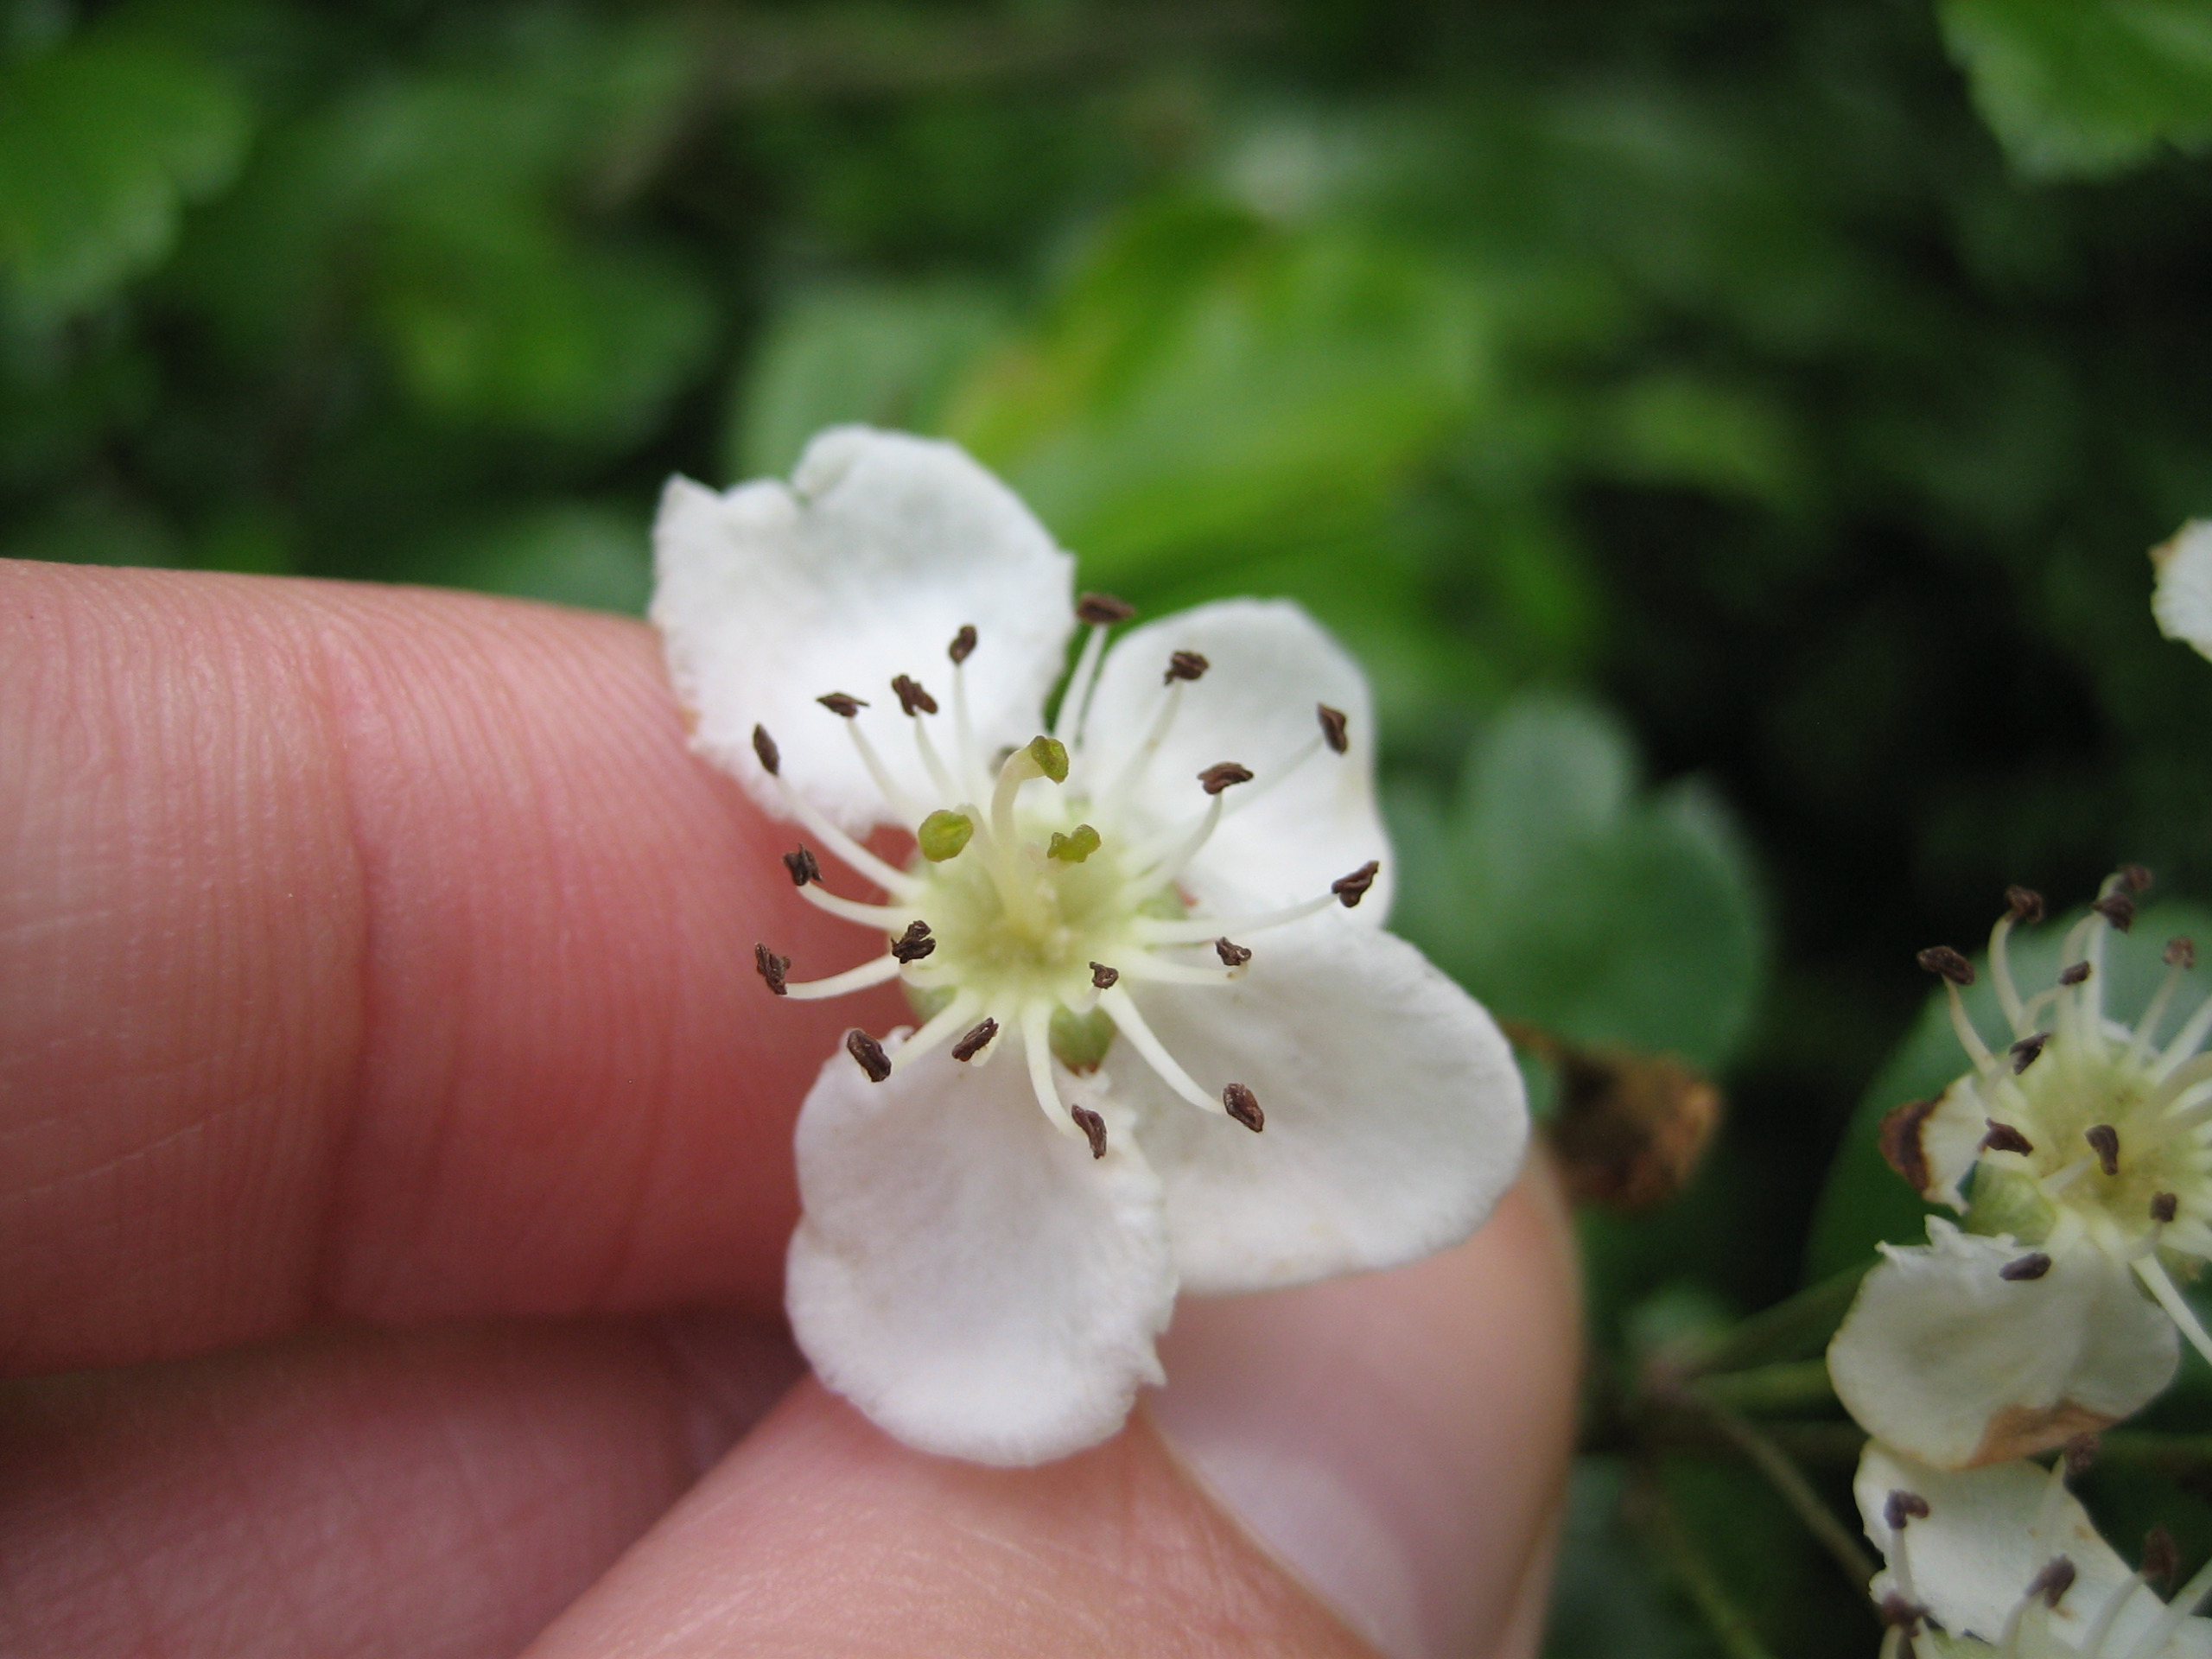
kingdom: Plantae
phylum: Tracheophyta
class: Magnoliopsida
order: Rosales
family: Rosaceae
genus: Crataegus
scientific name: Crataegus laevigata
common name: Almindelig hvidtjørn
